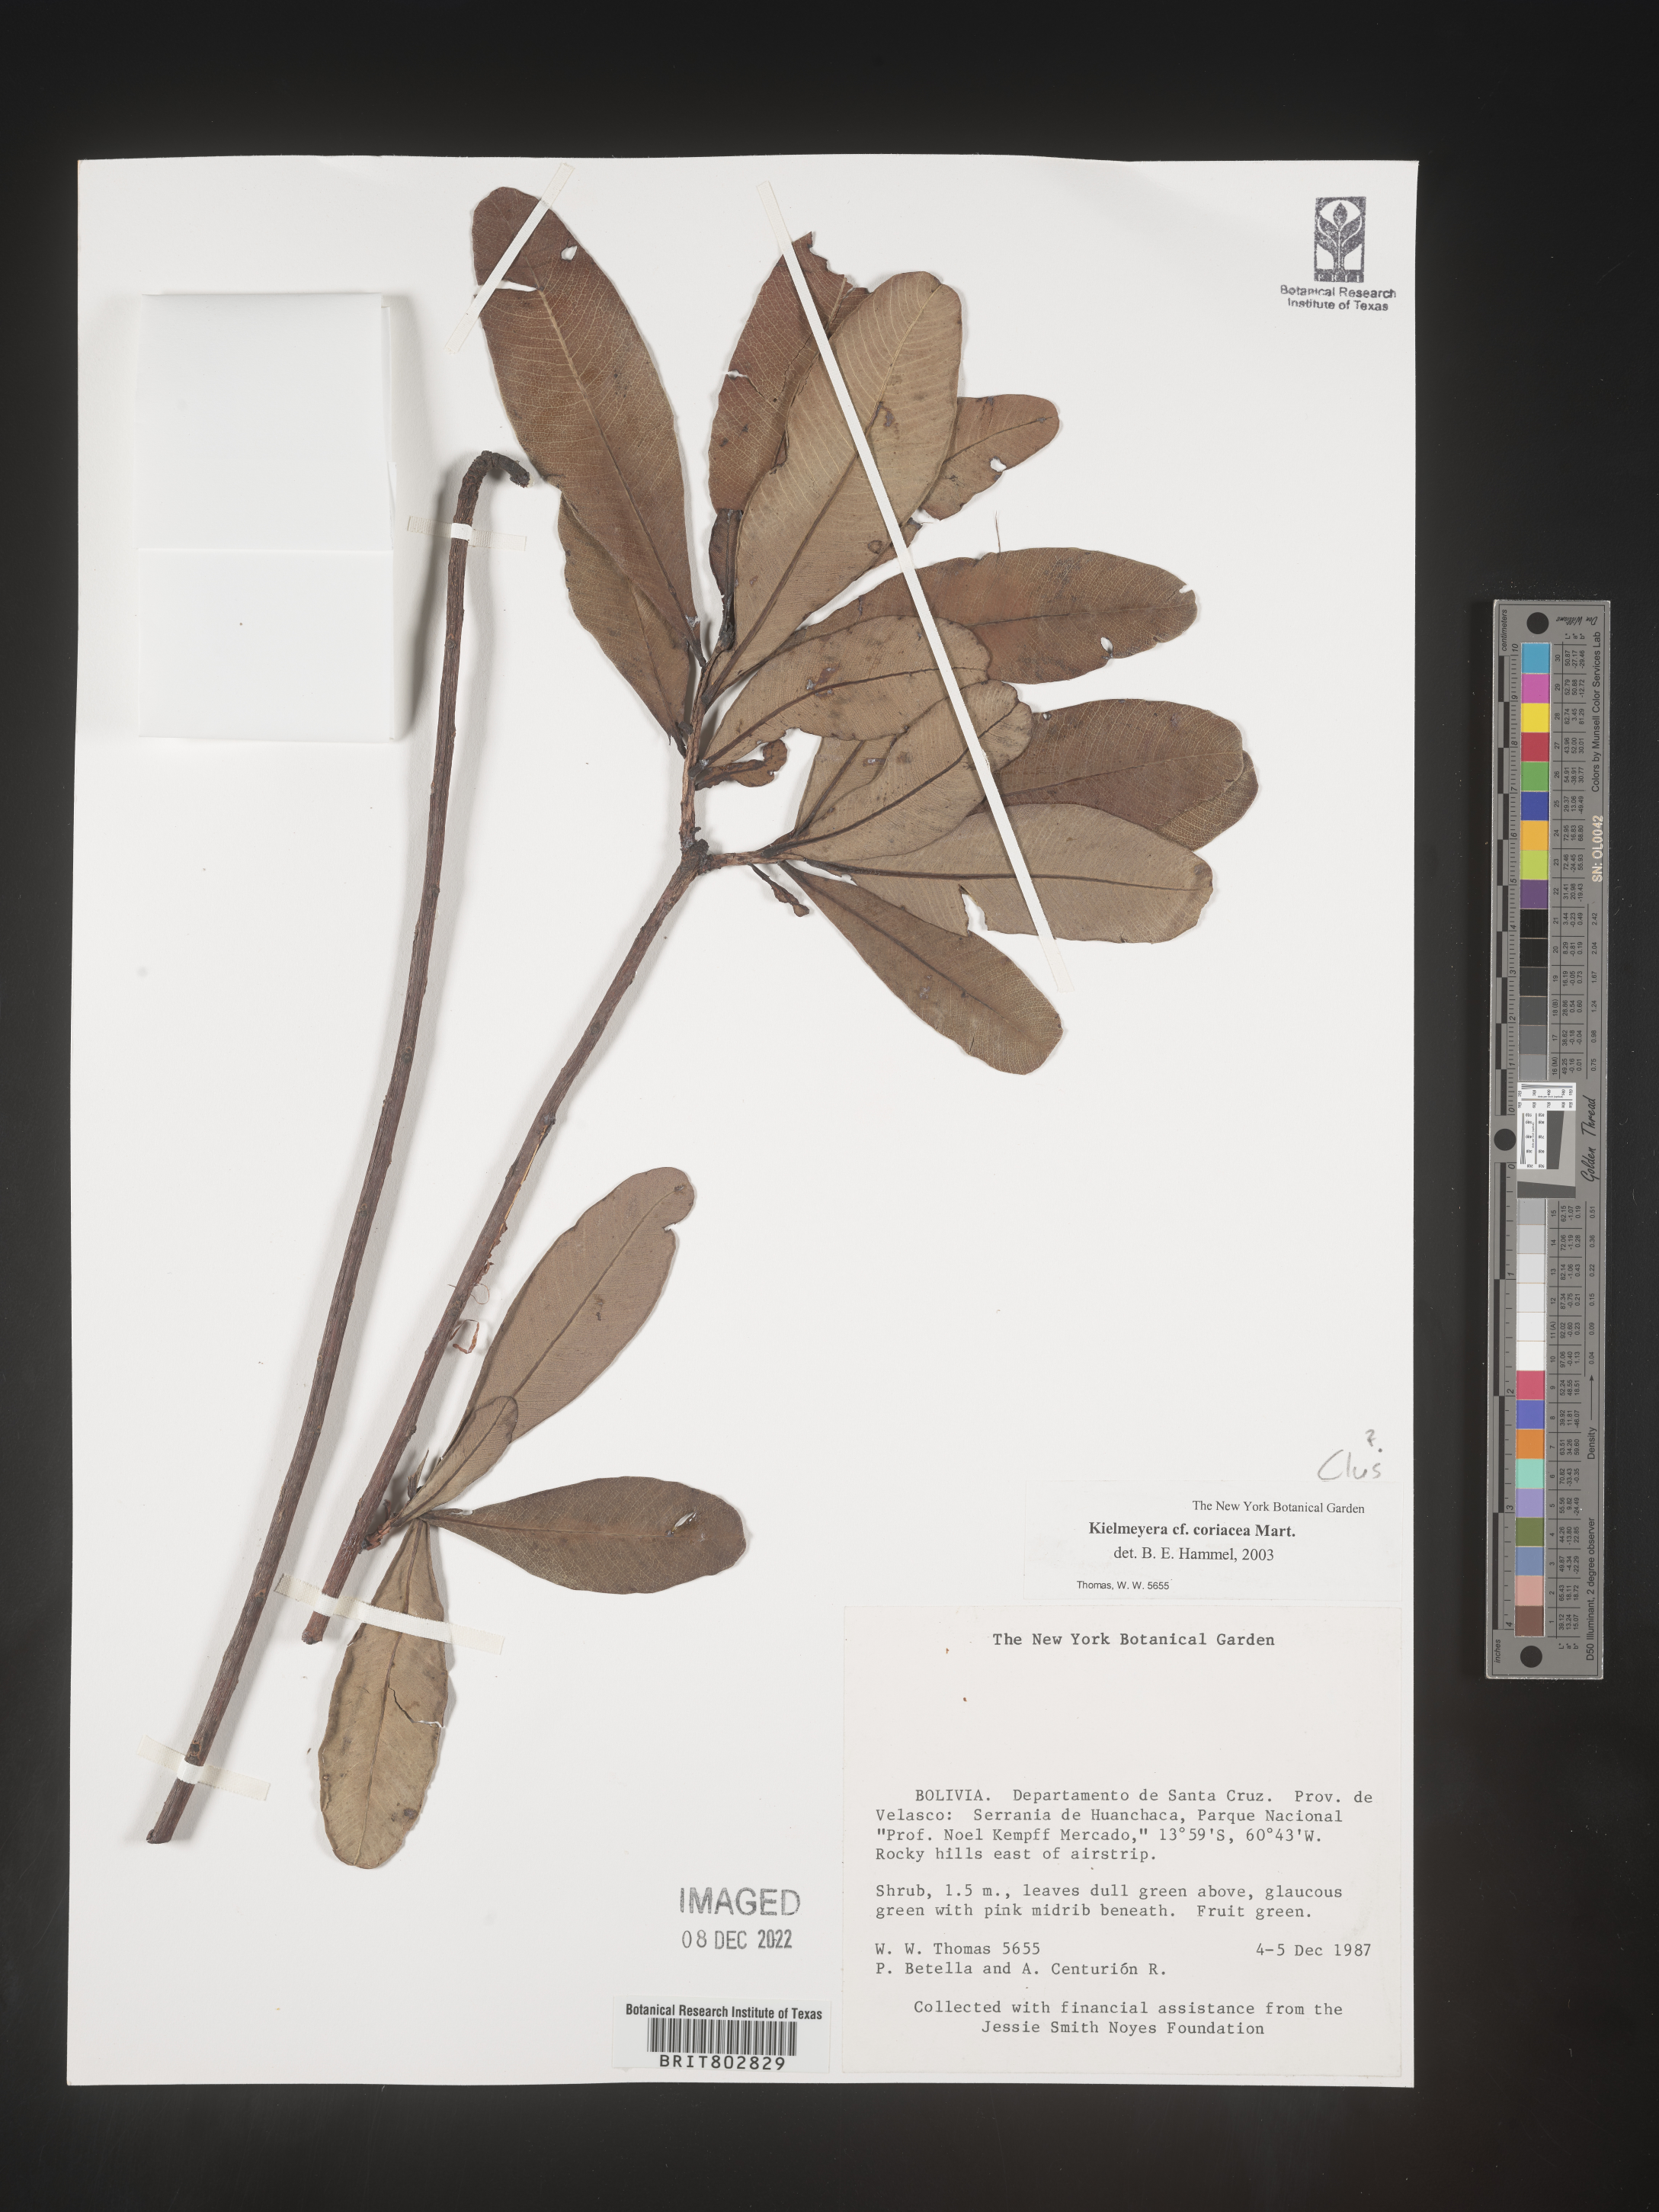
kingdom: Plantae
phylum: Tracheophyta
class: Magnoliopsida
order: Malpighiales
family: Calophyllaceae
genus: Kielmeyera
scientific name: Kielmeyera
